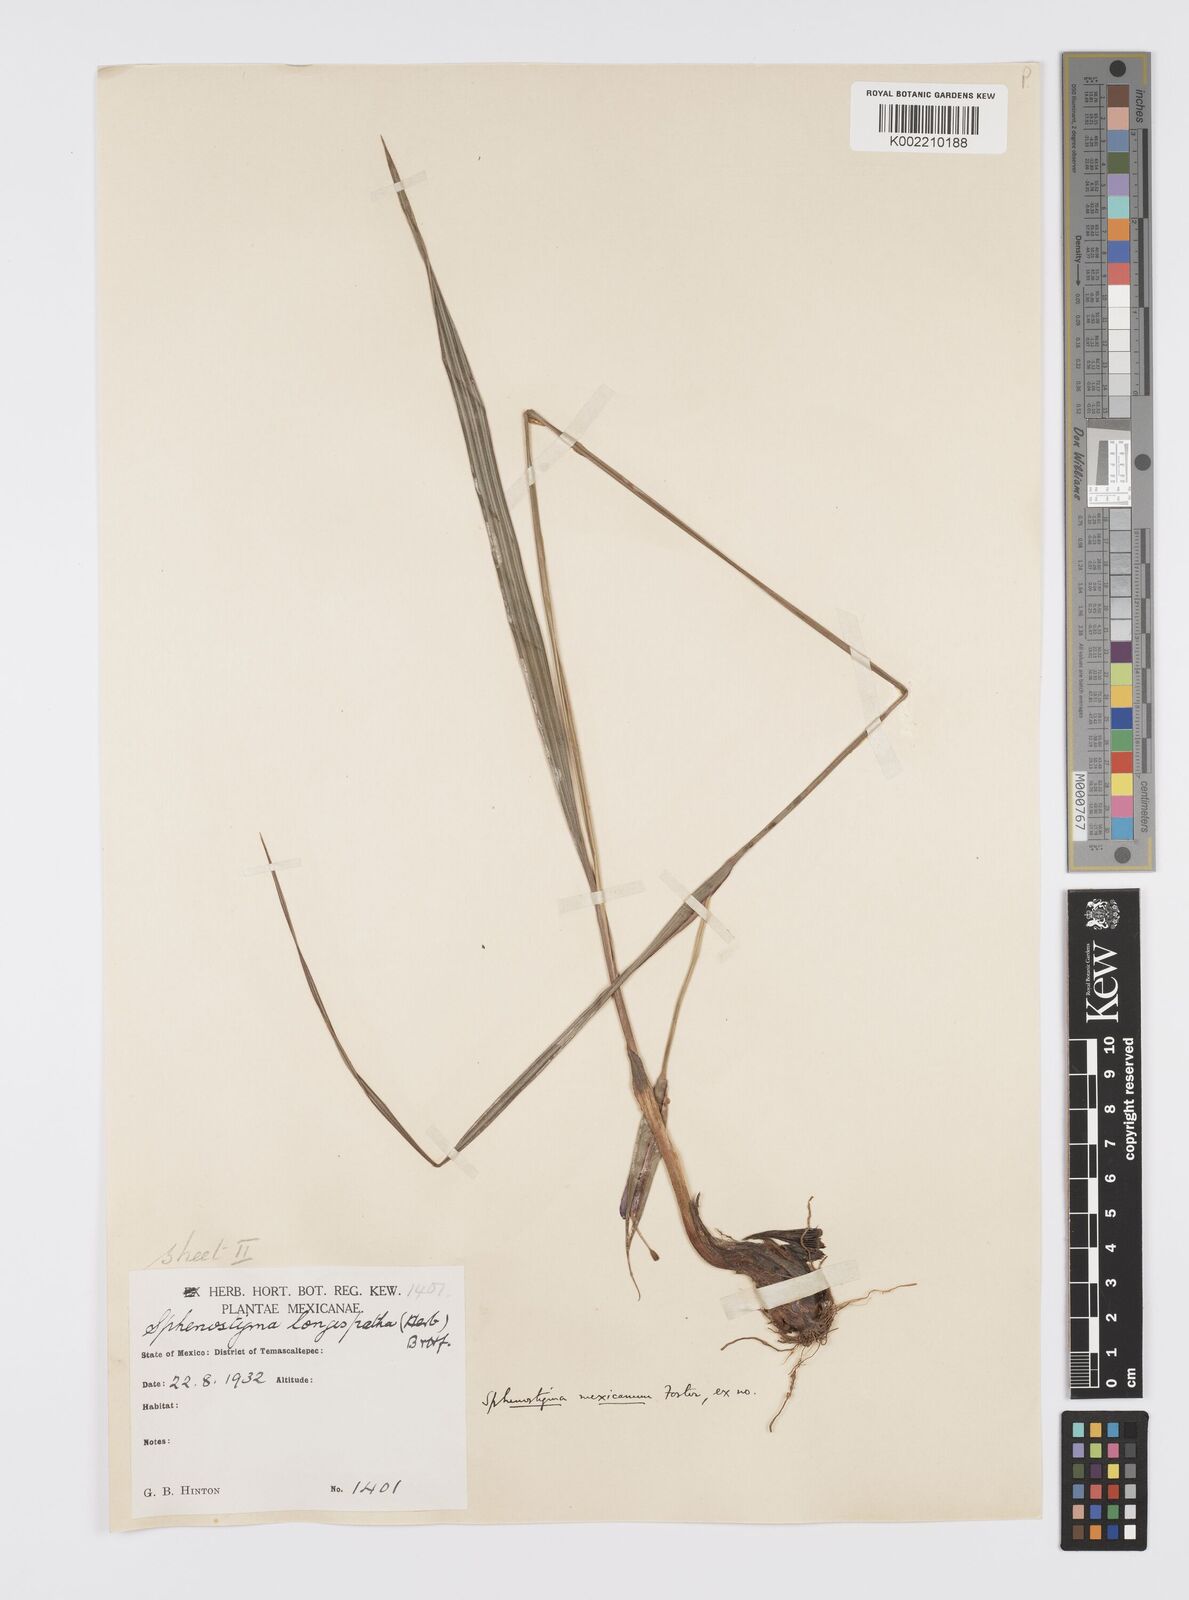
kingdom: Plantae
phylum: Tracheophyta
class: Liliopsida
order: Asparagales
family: Iridaceae
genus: Gelasine
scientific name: Gelasine
